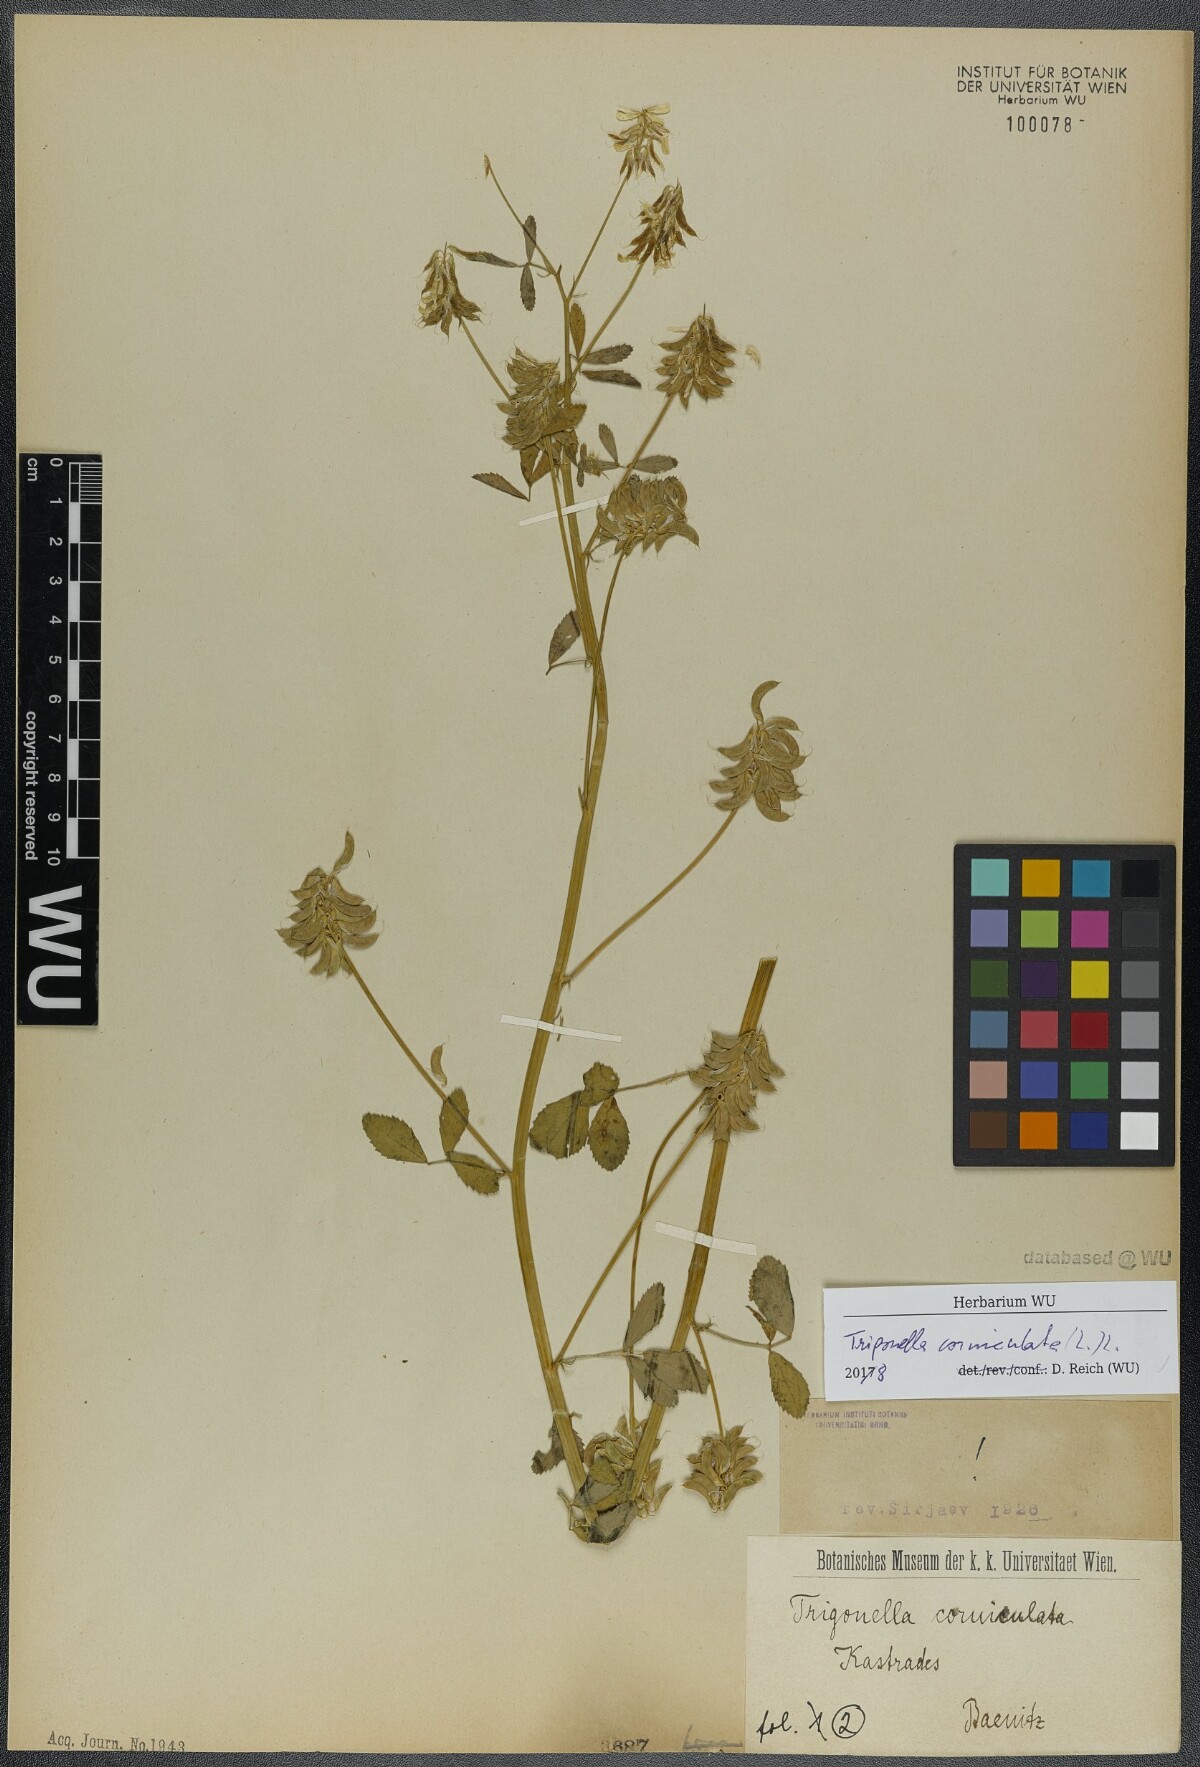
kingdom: Plantae
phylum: Tracheophyta
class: Magnoliopsida
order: Fabales
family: Fabaceae
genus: Trigonella
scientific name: Trigonella balansae
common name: Sickle-fruited fenugreek
